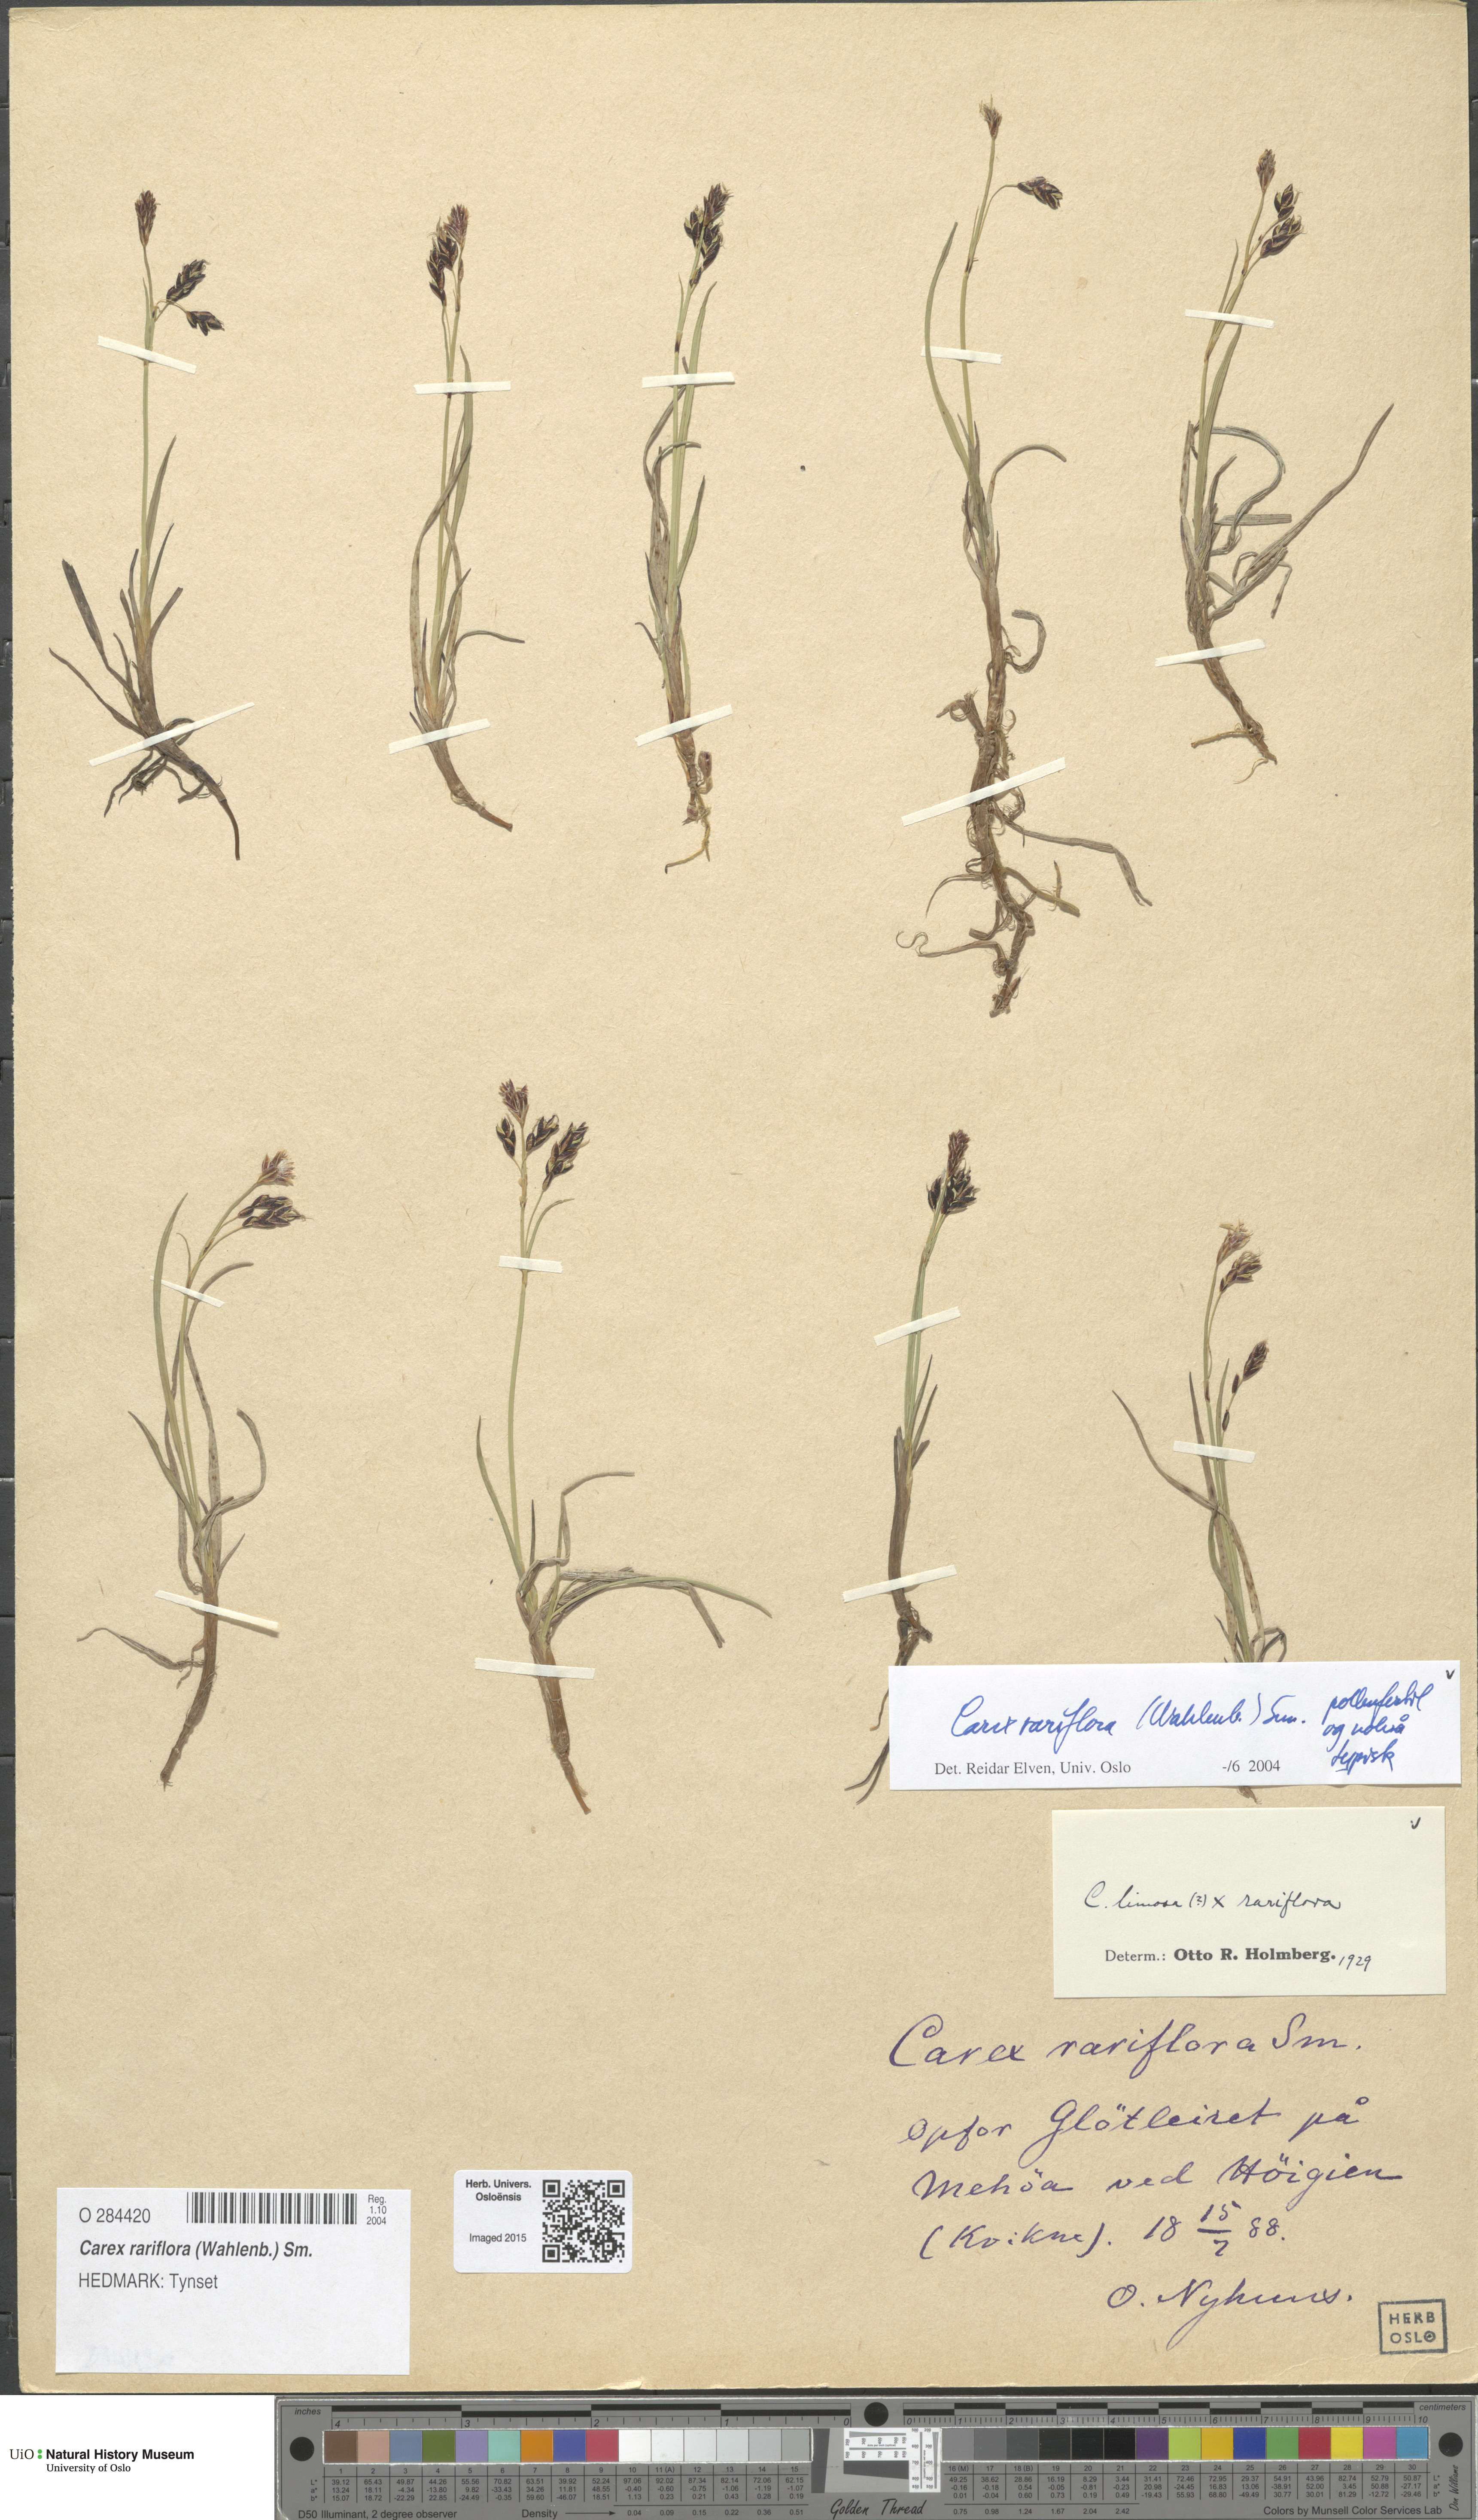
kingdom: Plantae
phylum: Tracheophyta
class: Liliopsida
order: Poales
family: Cyperaceae
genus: Carex
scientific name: Carex rariflora
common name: Loose-flowered alpine sedge
